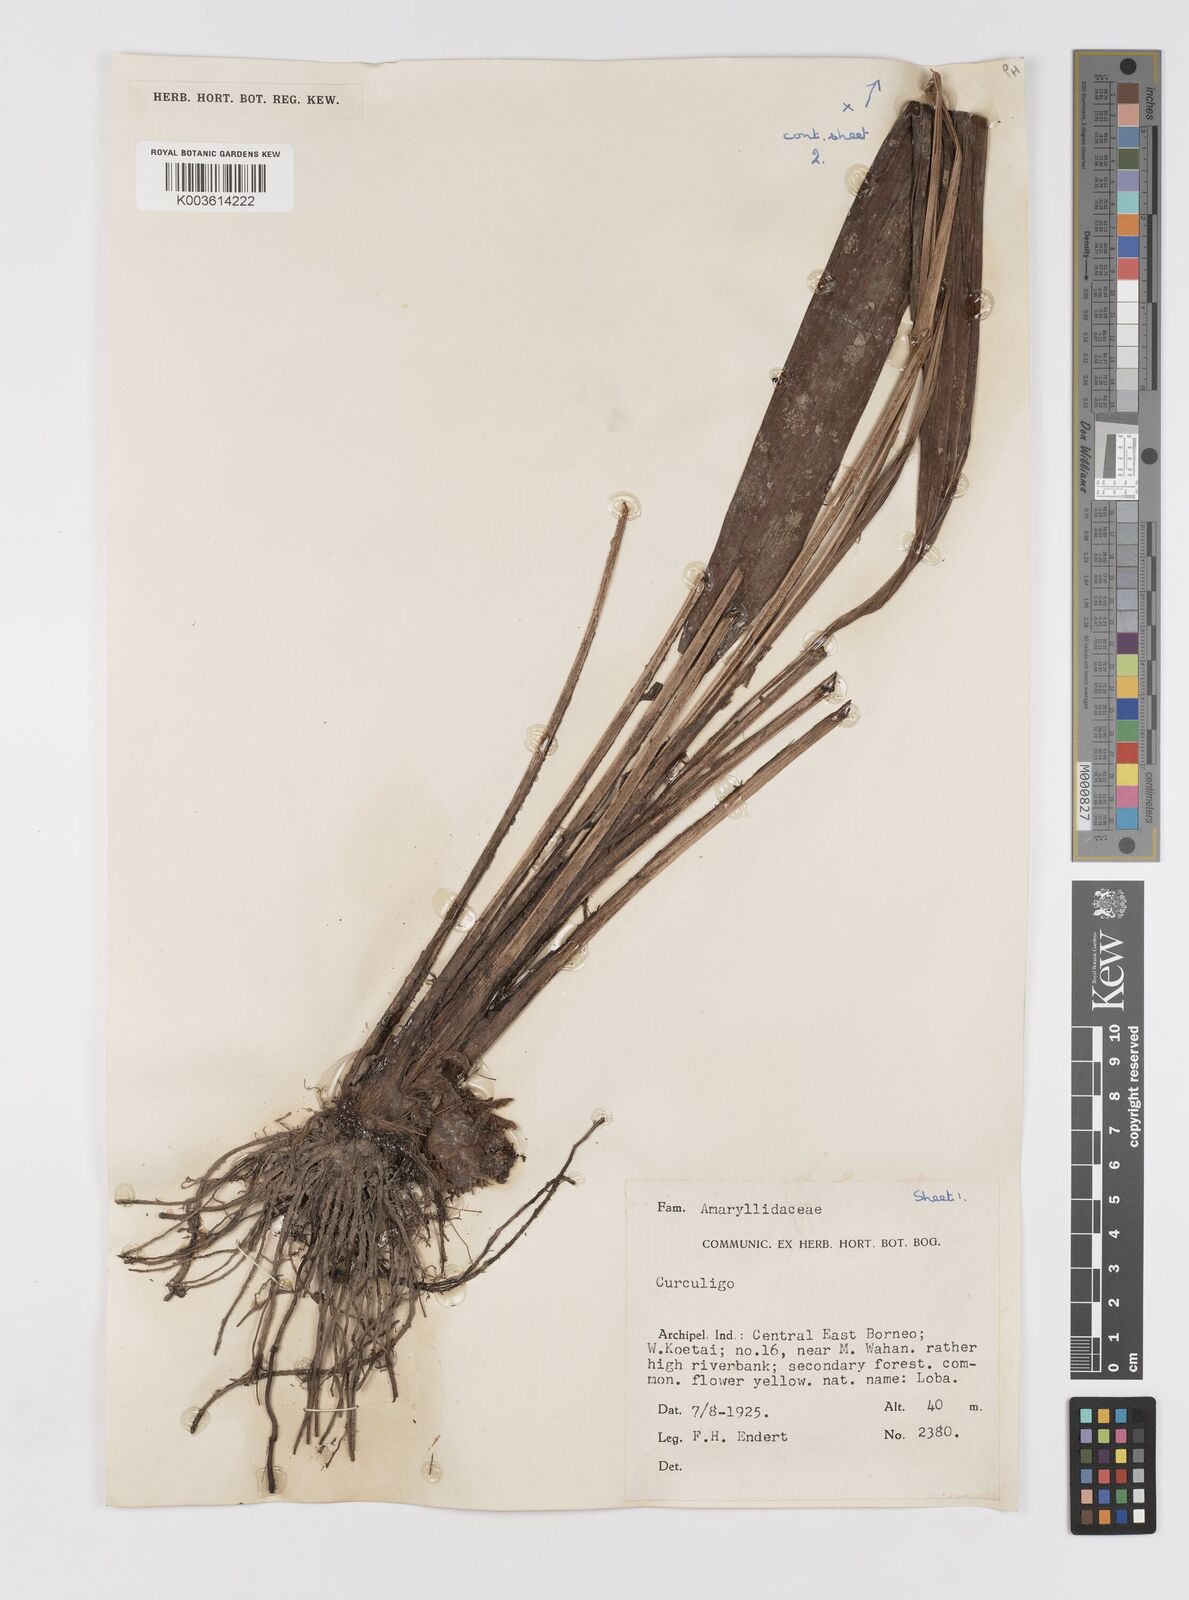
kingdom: Plantae
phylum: Tracheophyta
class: Liliopsida
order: Asparagales
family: Hypoxidaceae
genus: Curculigo
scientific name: Curculigo
